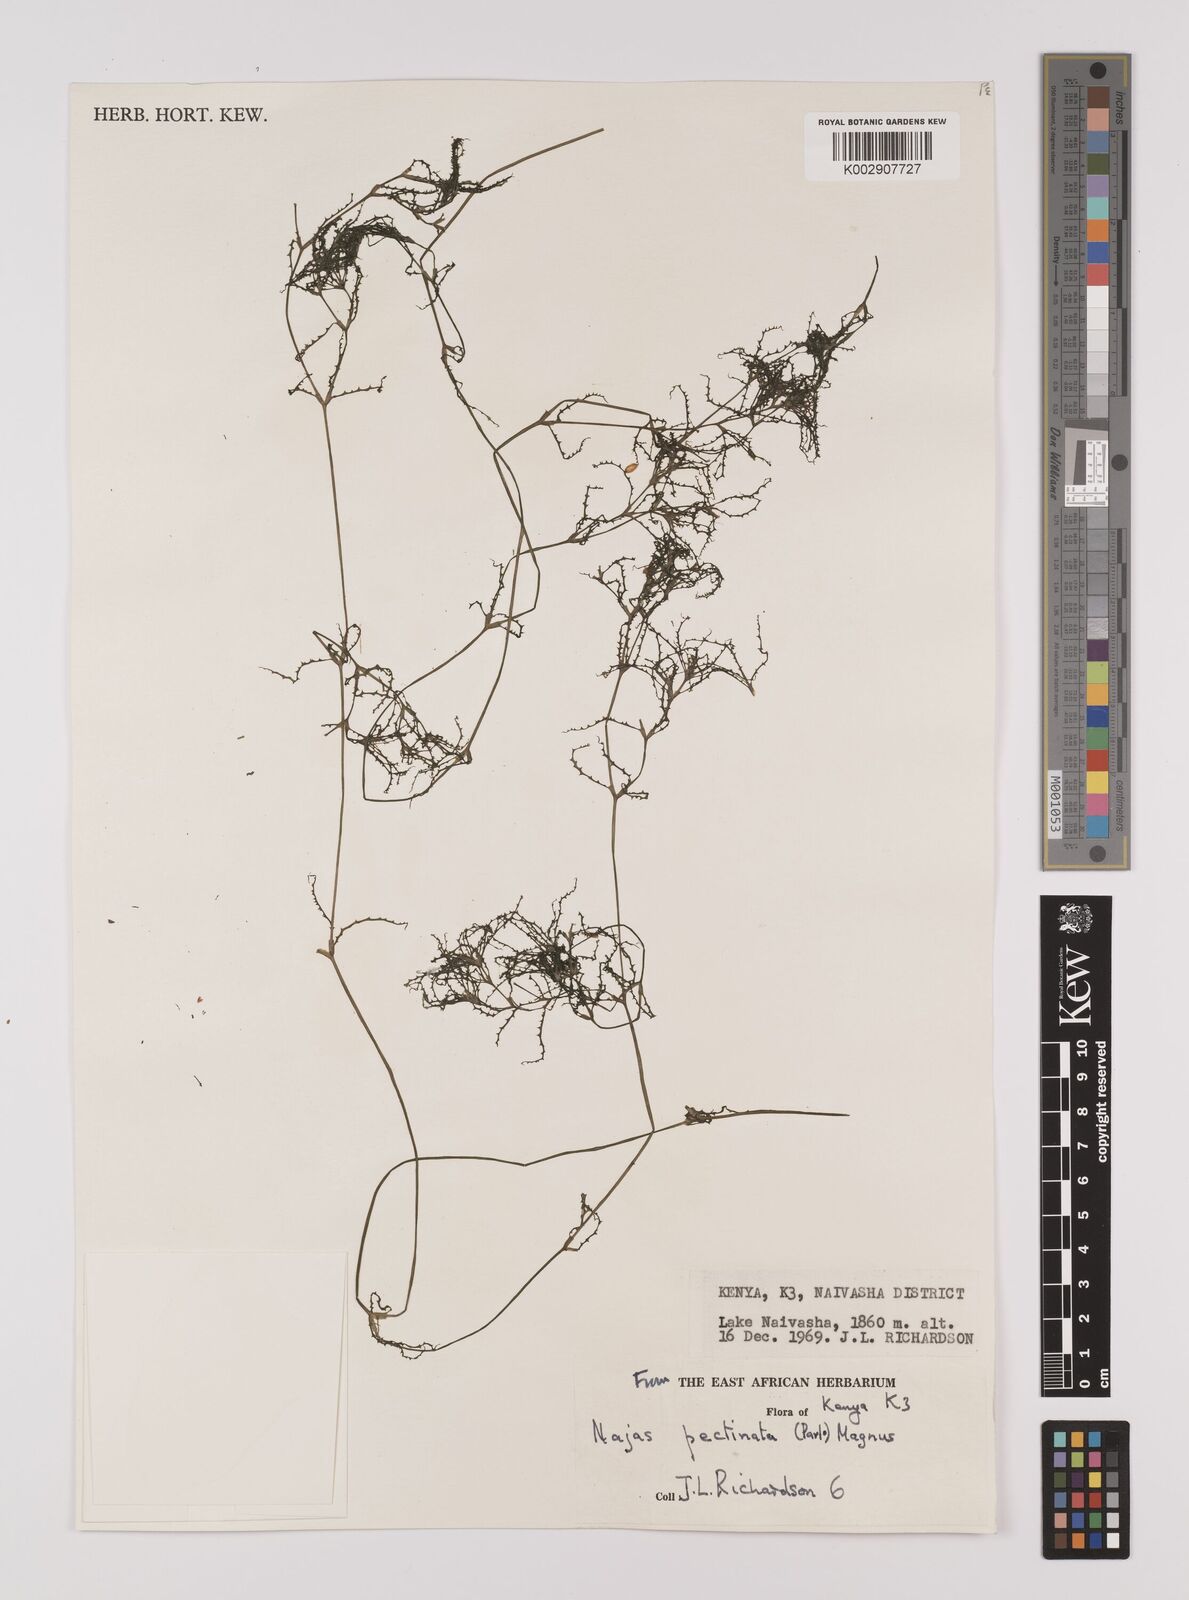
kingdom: Plantae
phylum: Tracheophyta
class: Liliopsida
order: Alismatales
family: Hydrocharitaceae
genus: Najas
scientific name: Najas horrida
